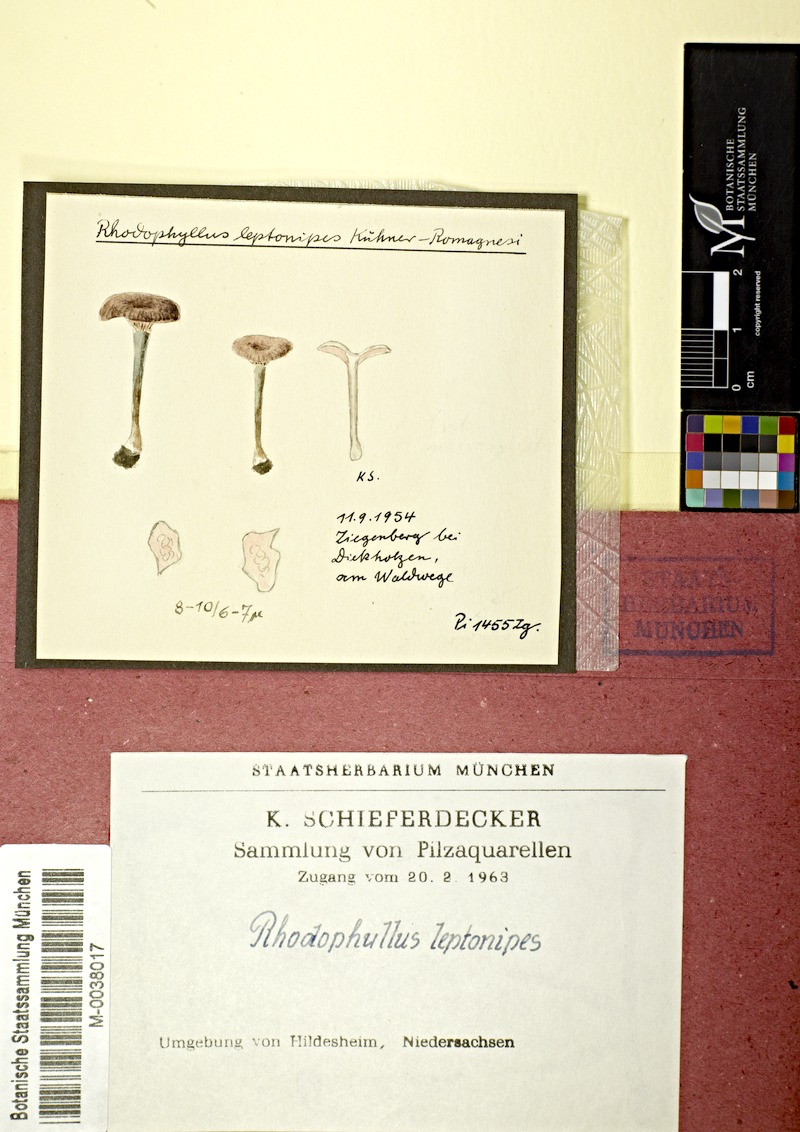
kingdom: Fungi
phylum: Basidiomycota
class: Agaricomycetes
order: Agaricales
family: Entolomataceae
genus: Entoloma
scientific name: Entoloma incarnatofuscescens
